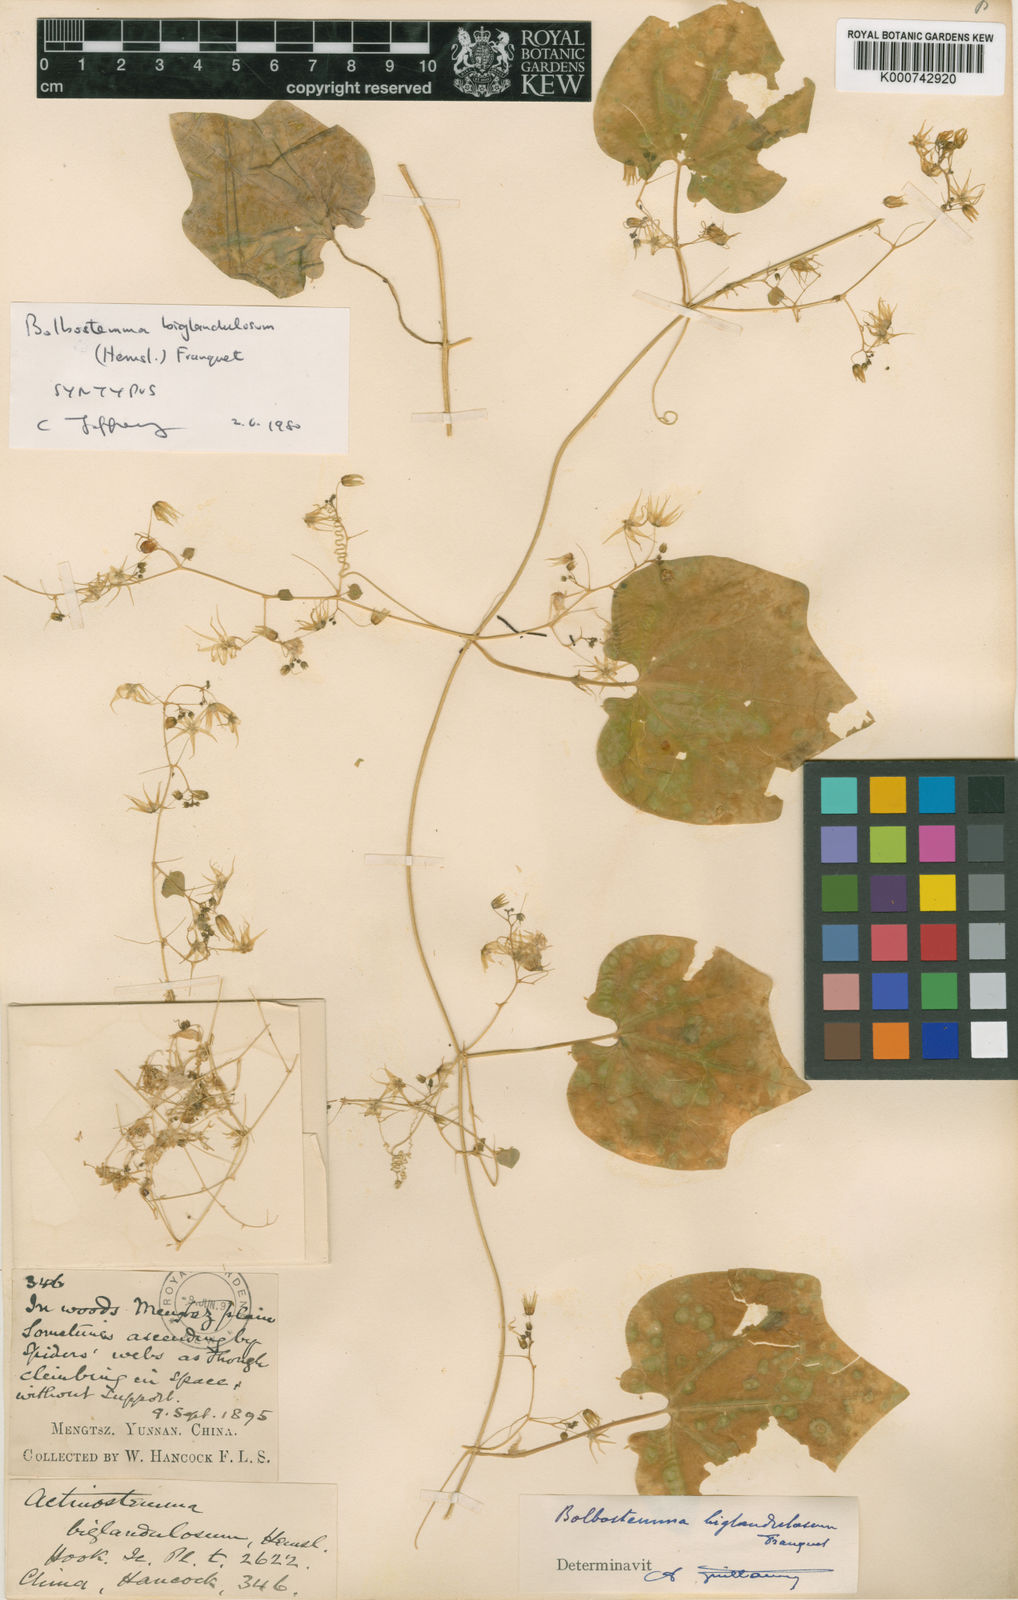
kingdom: Plantae
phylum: Tracheophyta
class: Magnoliopsida
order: Cucurbitales
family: Cucurbitaceae
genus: Actinostemma
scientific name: Actinostemma biglandulosum
